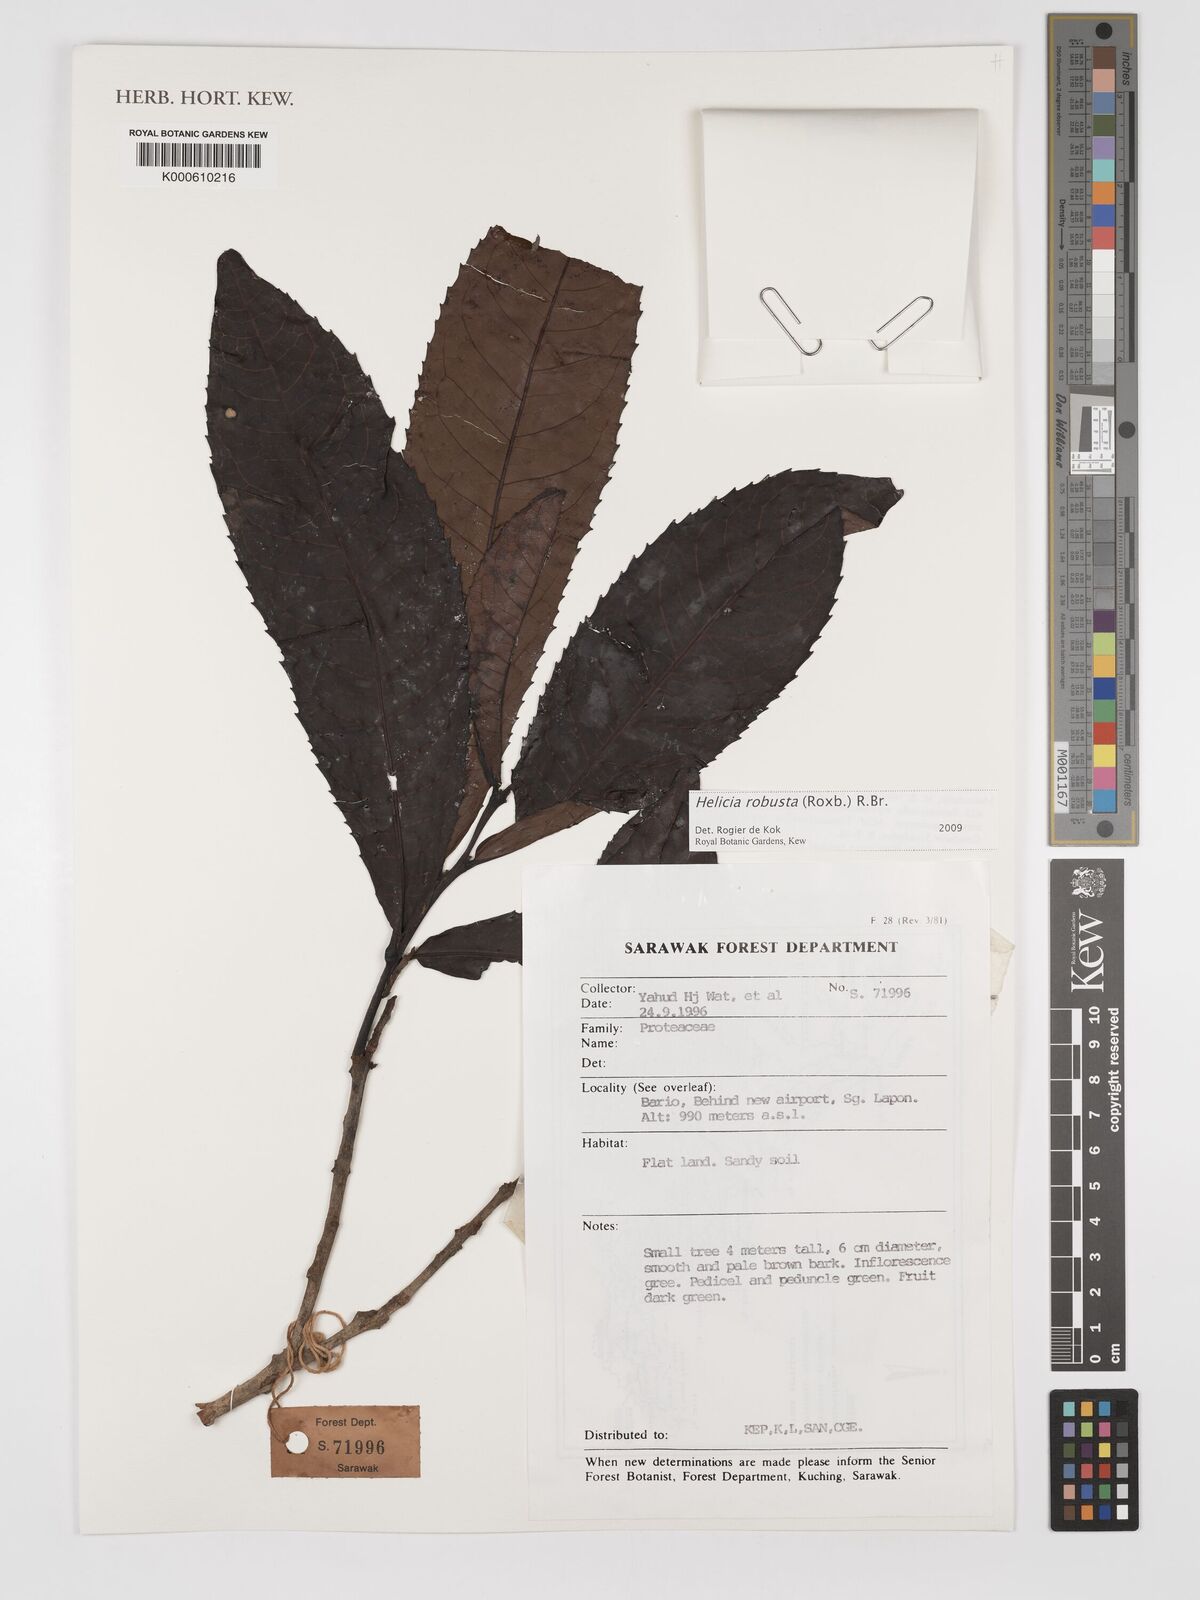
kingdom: Plantae
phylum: Tracheophyta
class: Magnoliopsida
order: Proteales
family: Proteaceae
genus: Helicia
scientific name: Helicia
